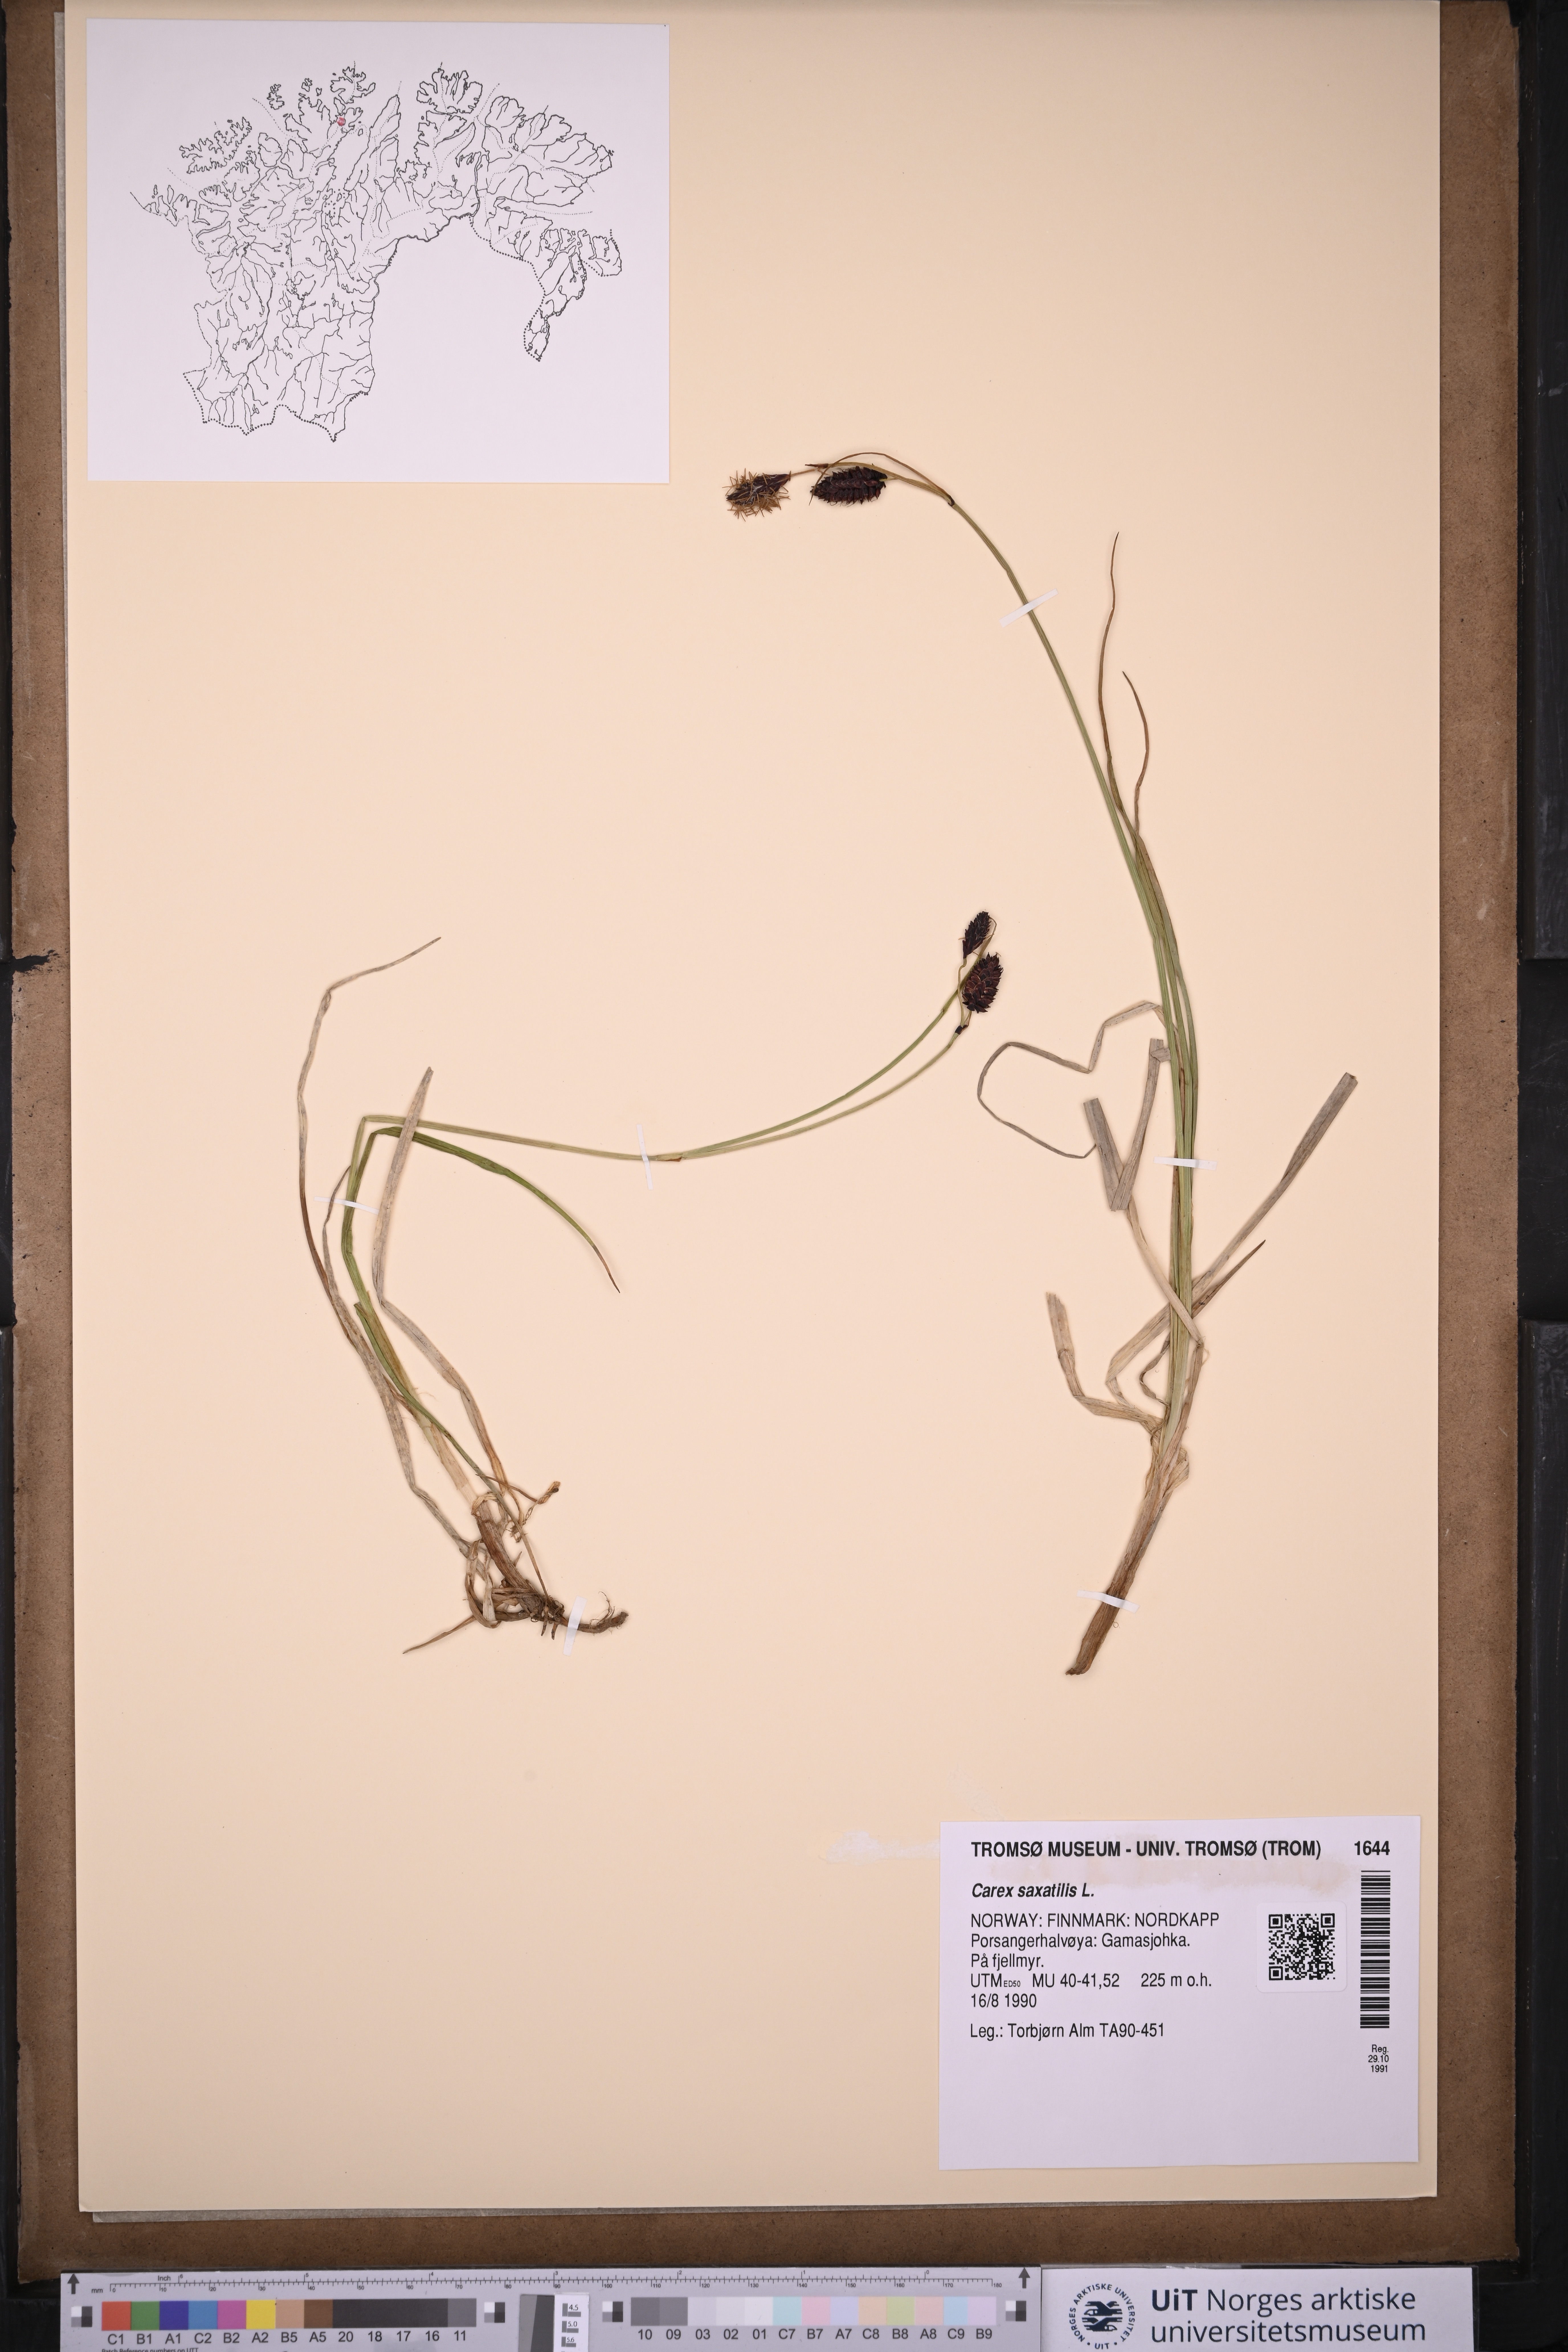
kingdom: Plantae
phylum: Tracheophyta
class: Liliopsida
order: Poales
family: Cyperaceae
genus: Carex
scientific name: Carex saxatilis
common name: Russet sedge
